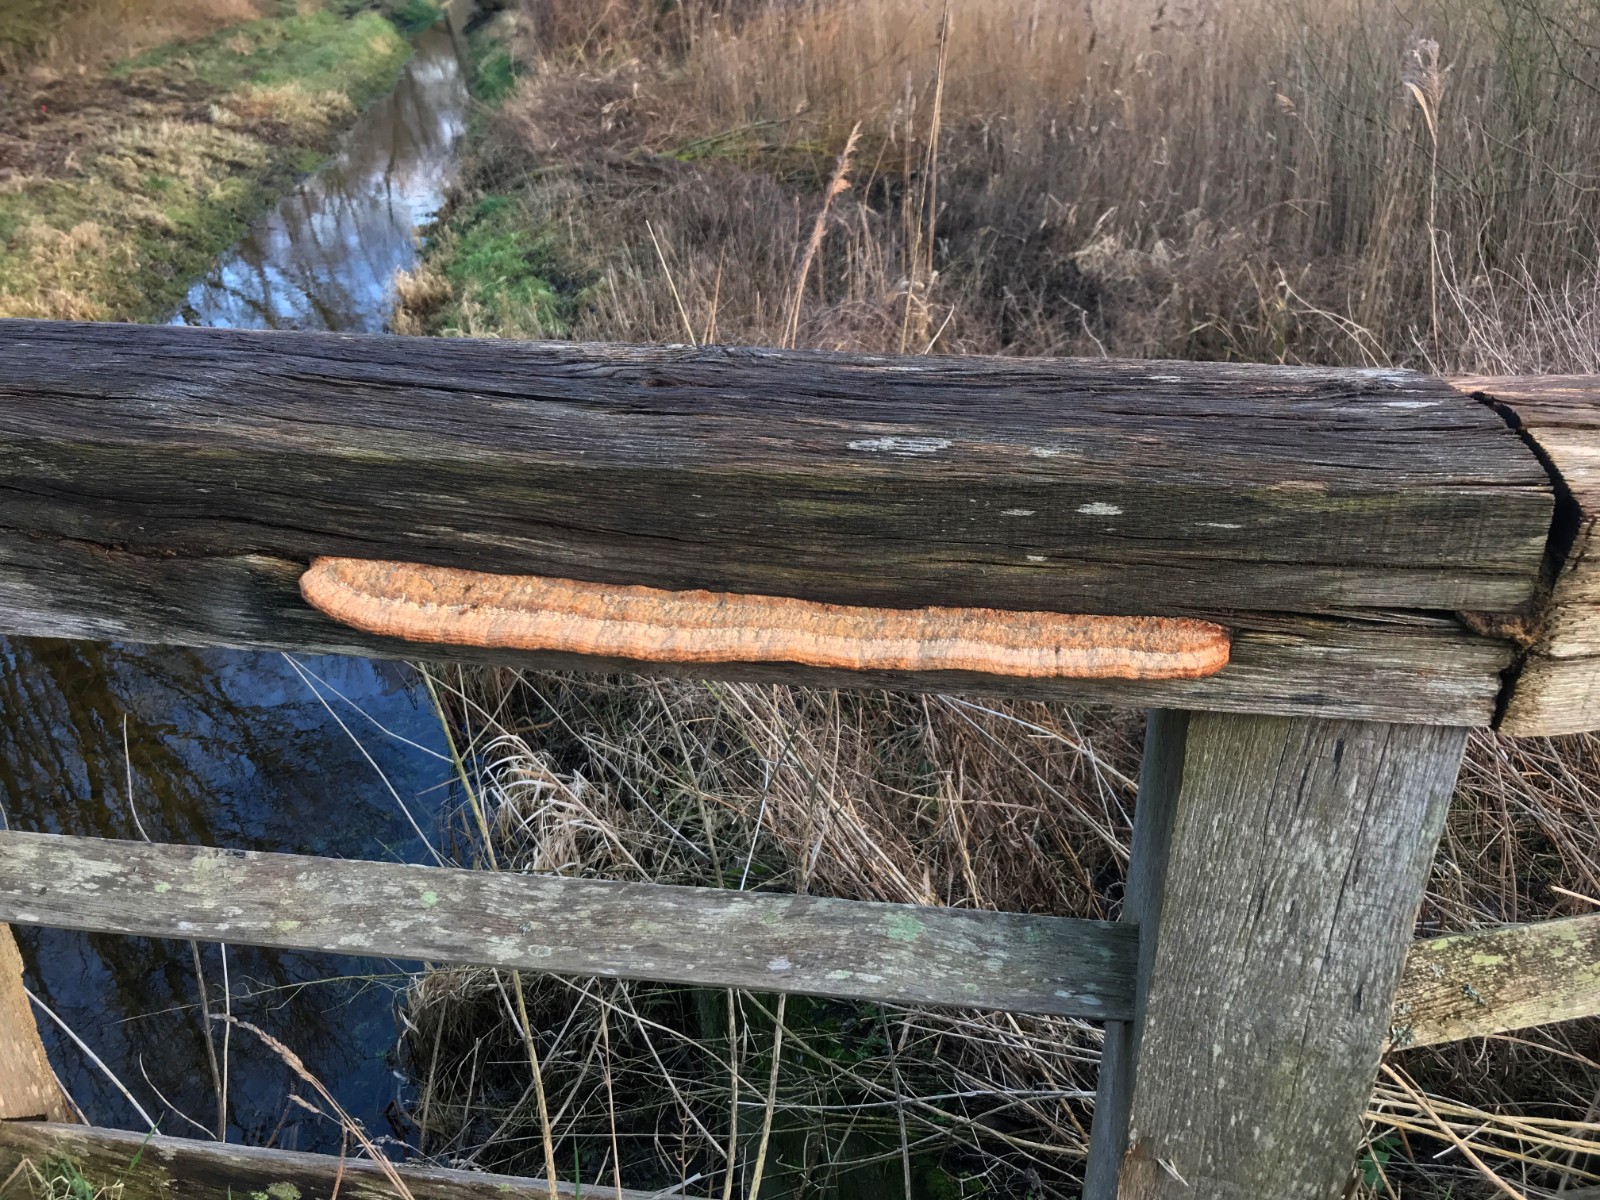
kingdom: Fungi
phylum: Basidiomycota
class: Agaricomycetes
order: Polyporales
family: Fomitopsidaceae
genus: Daedalea
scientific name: Daedalea quercina
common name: ege-labyrintsvamp
